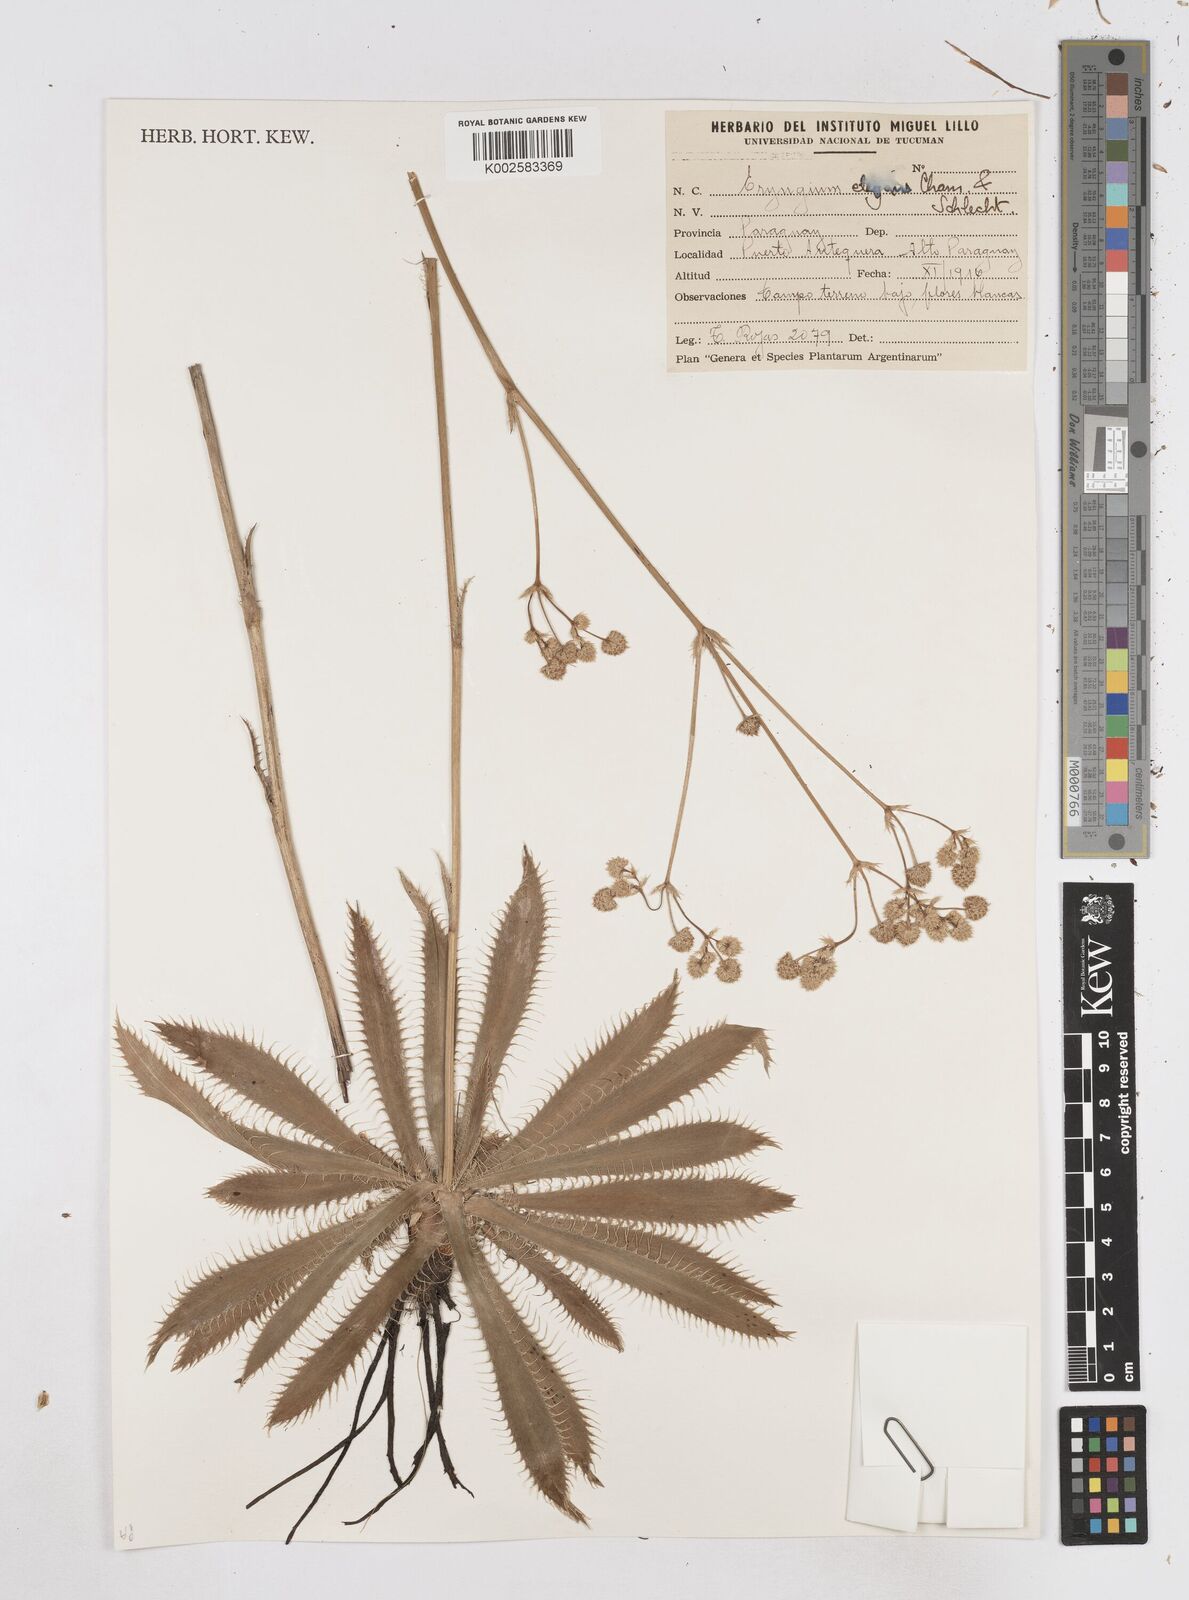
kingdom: Plantae
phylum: Tracheophyta
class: Magnoliopsida
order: Apiales
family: Apiaceae
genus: Eryngium
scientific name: Eryngium elegans
